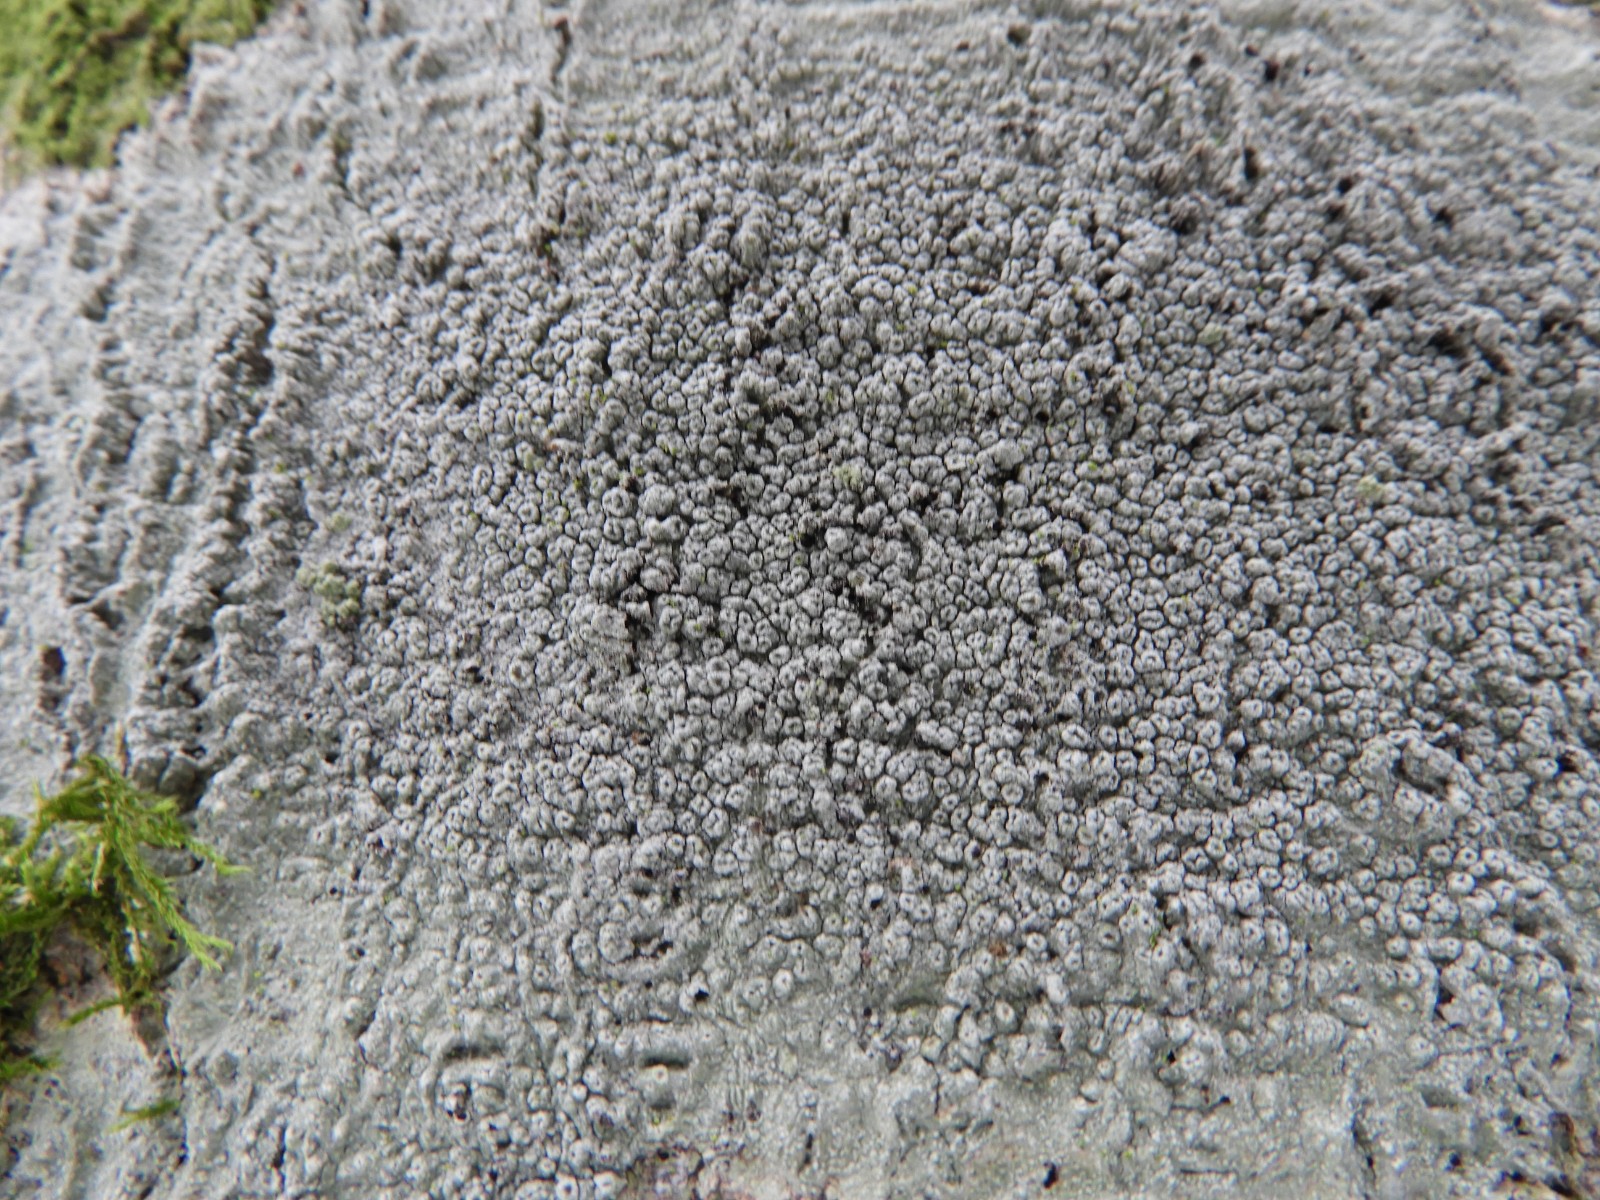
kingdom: Fungi
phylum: Ascomycota
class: Lecanoromycetes
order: Pertusariales
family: Pertusariaceae
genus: Pertusaria
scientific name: Pertusaria hymenea
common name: åben prikvortelav
